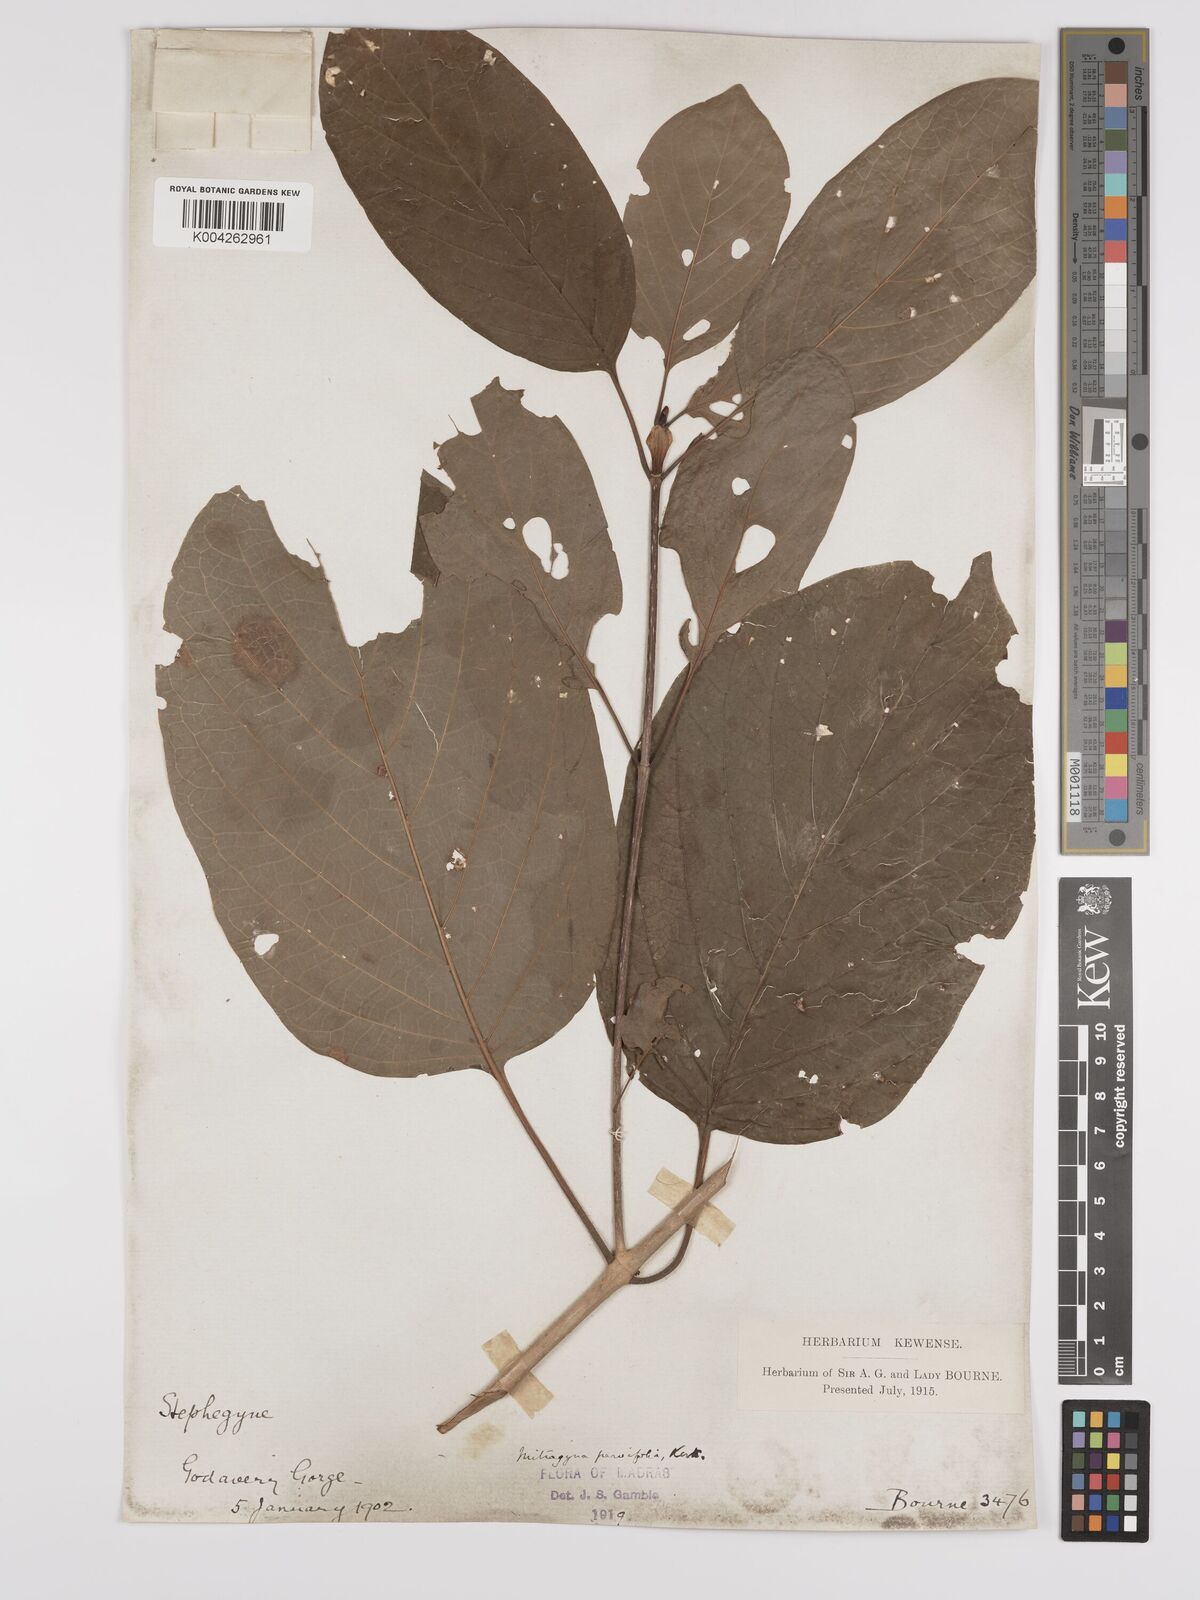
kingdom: Plantae
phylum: Tracheophyta
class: Magnoliopsida
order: Gentianales
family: Rubiaceae
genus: Mitragyna
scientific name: Mitragyna parvifolia
